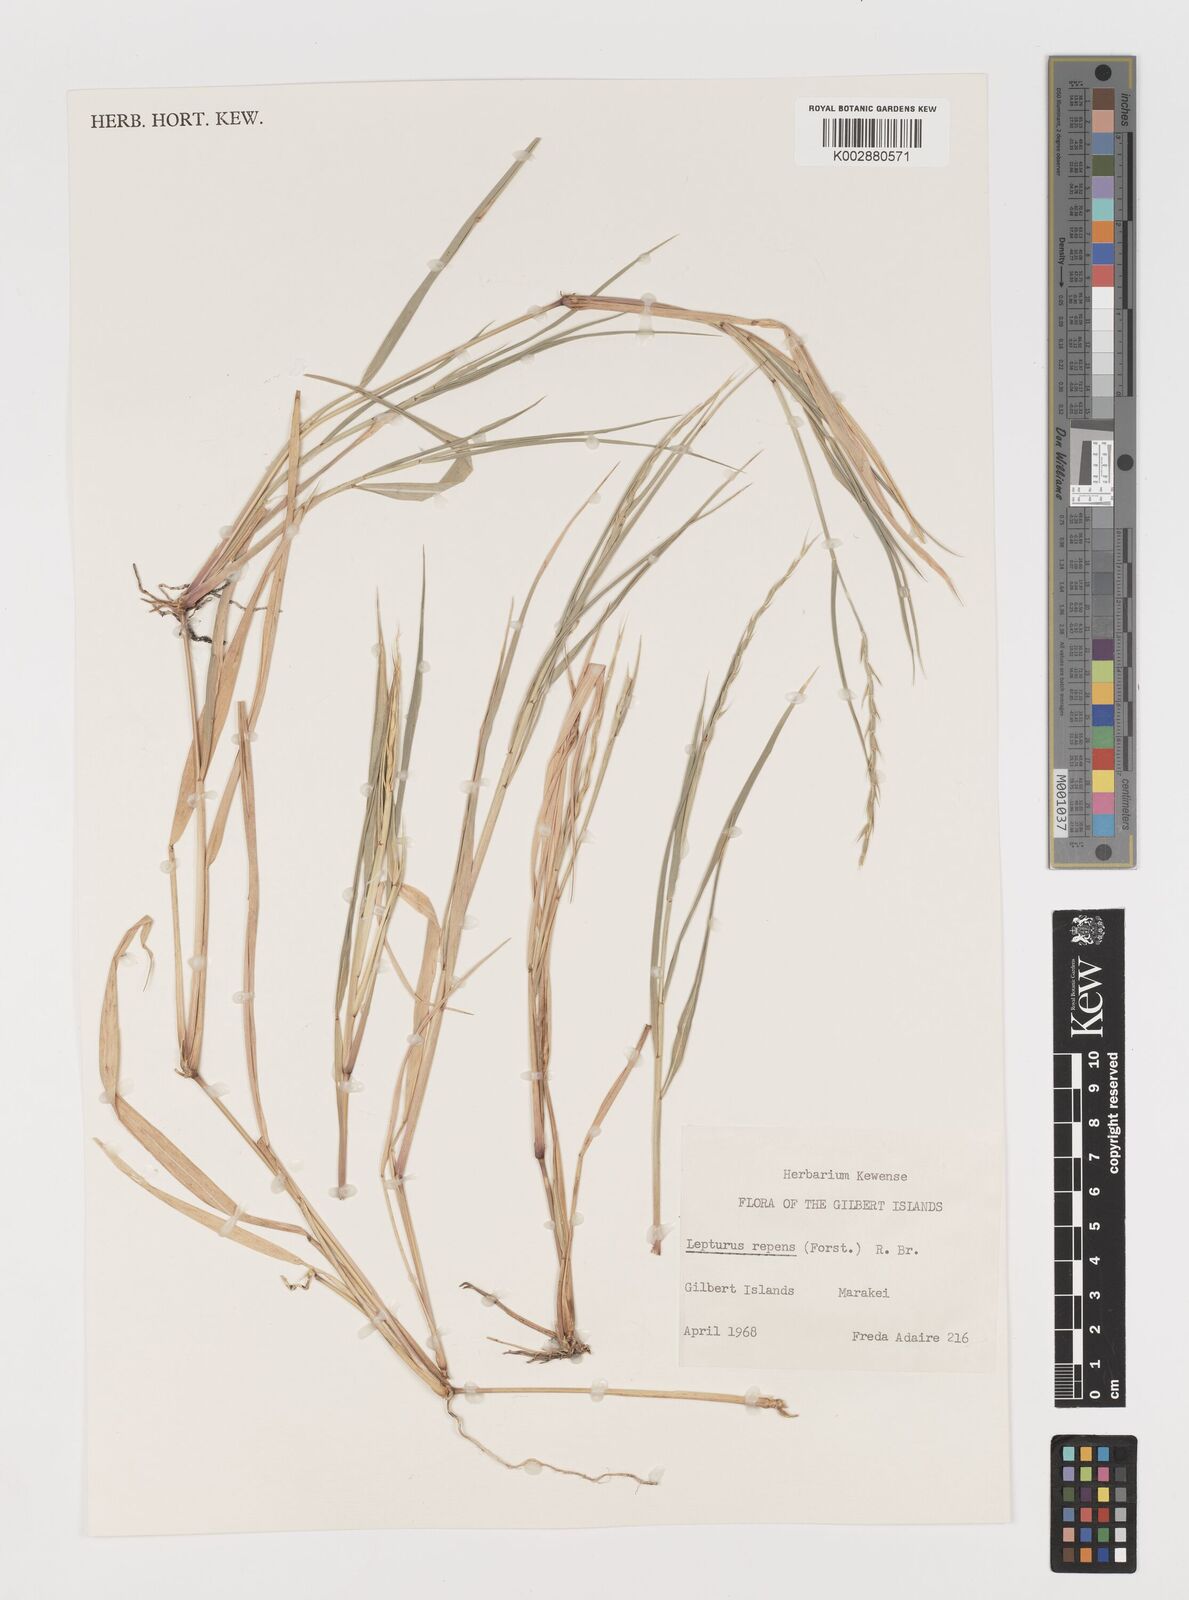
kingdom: Plantae
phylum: Tracheophyta
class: Liliopsida
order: Poales
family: Poaceae
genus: Lepturus
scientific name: Lepturus repens
